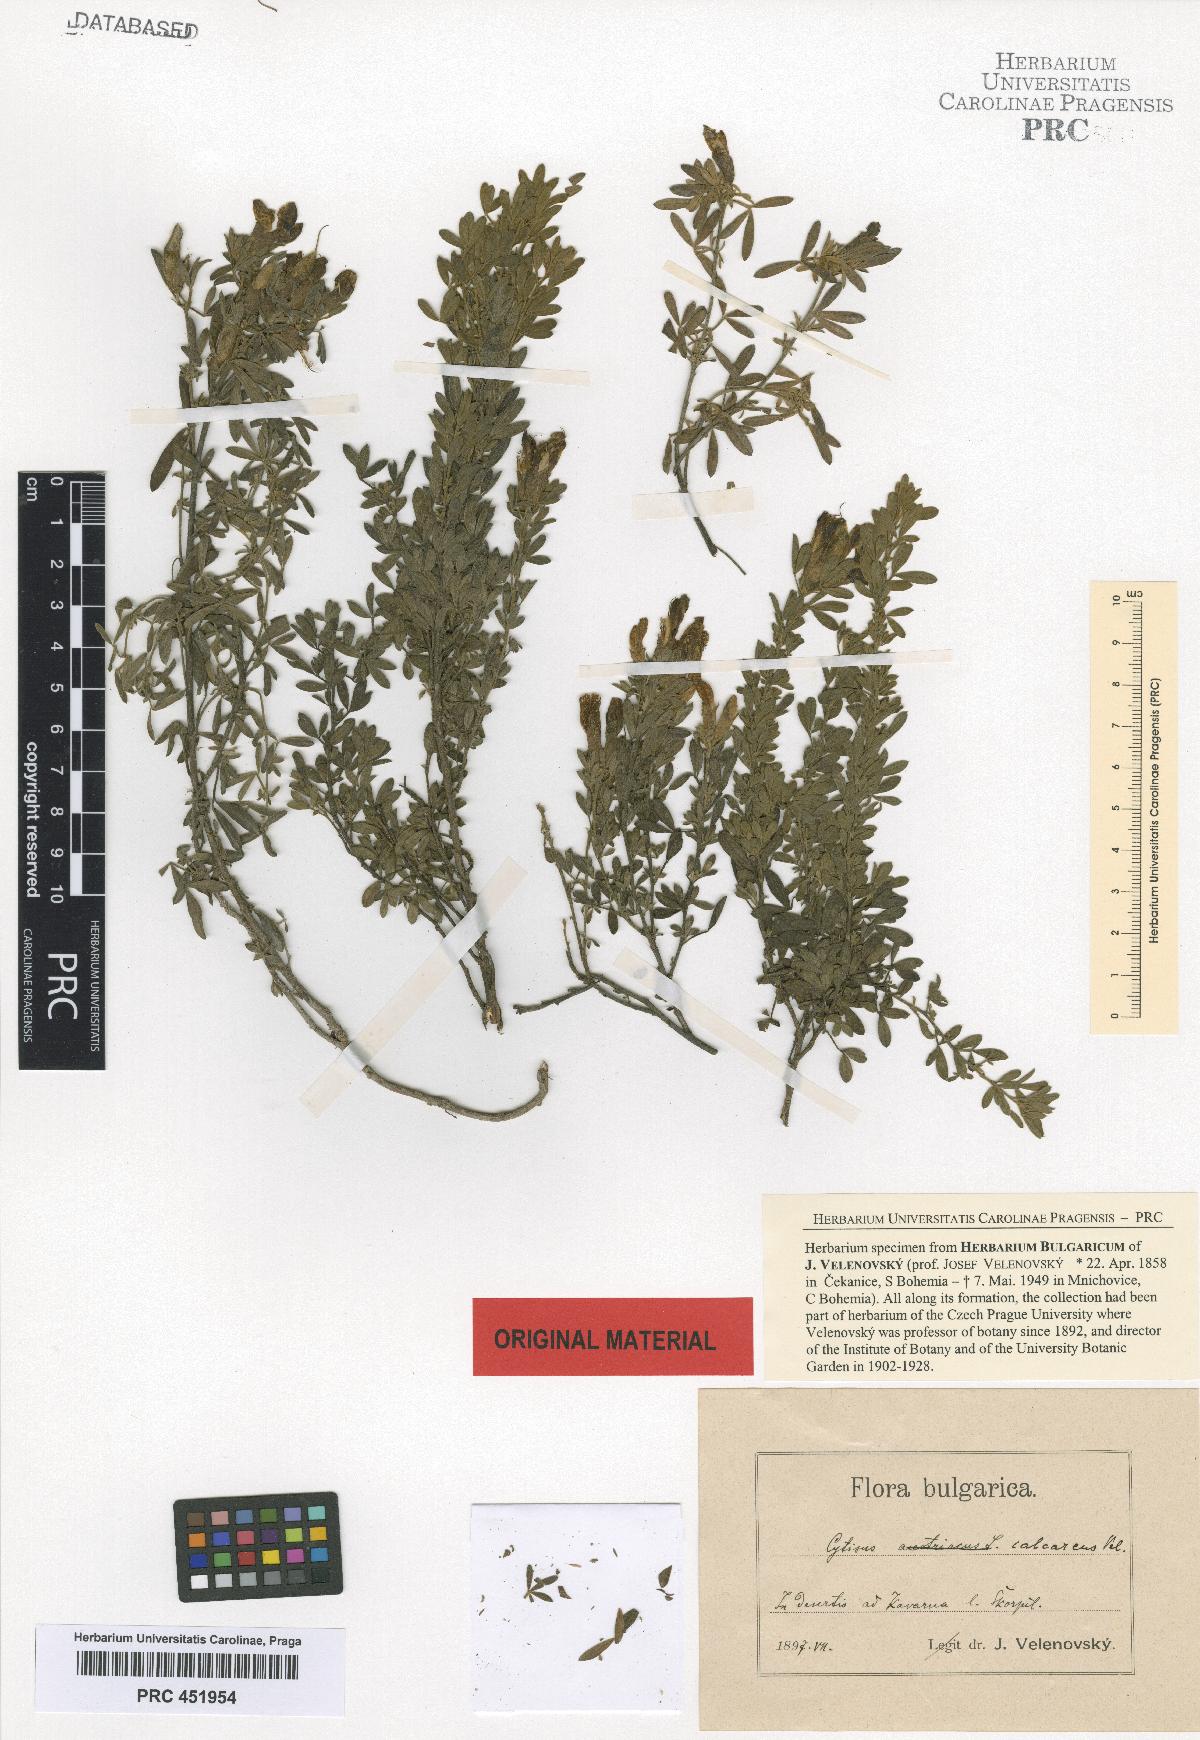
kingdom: Plantae
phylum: Tracheophyta
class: Magnoliopsida
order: Fabales
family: Fabaceae
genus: Chamaecytisus
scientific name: Chamaecytisus calcareus
